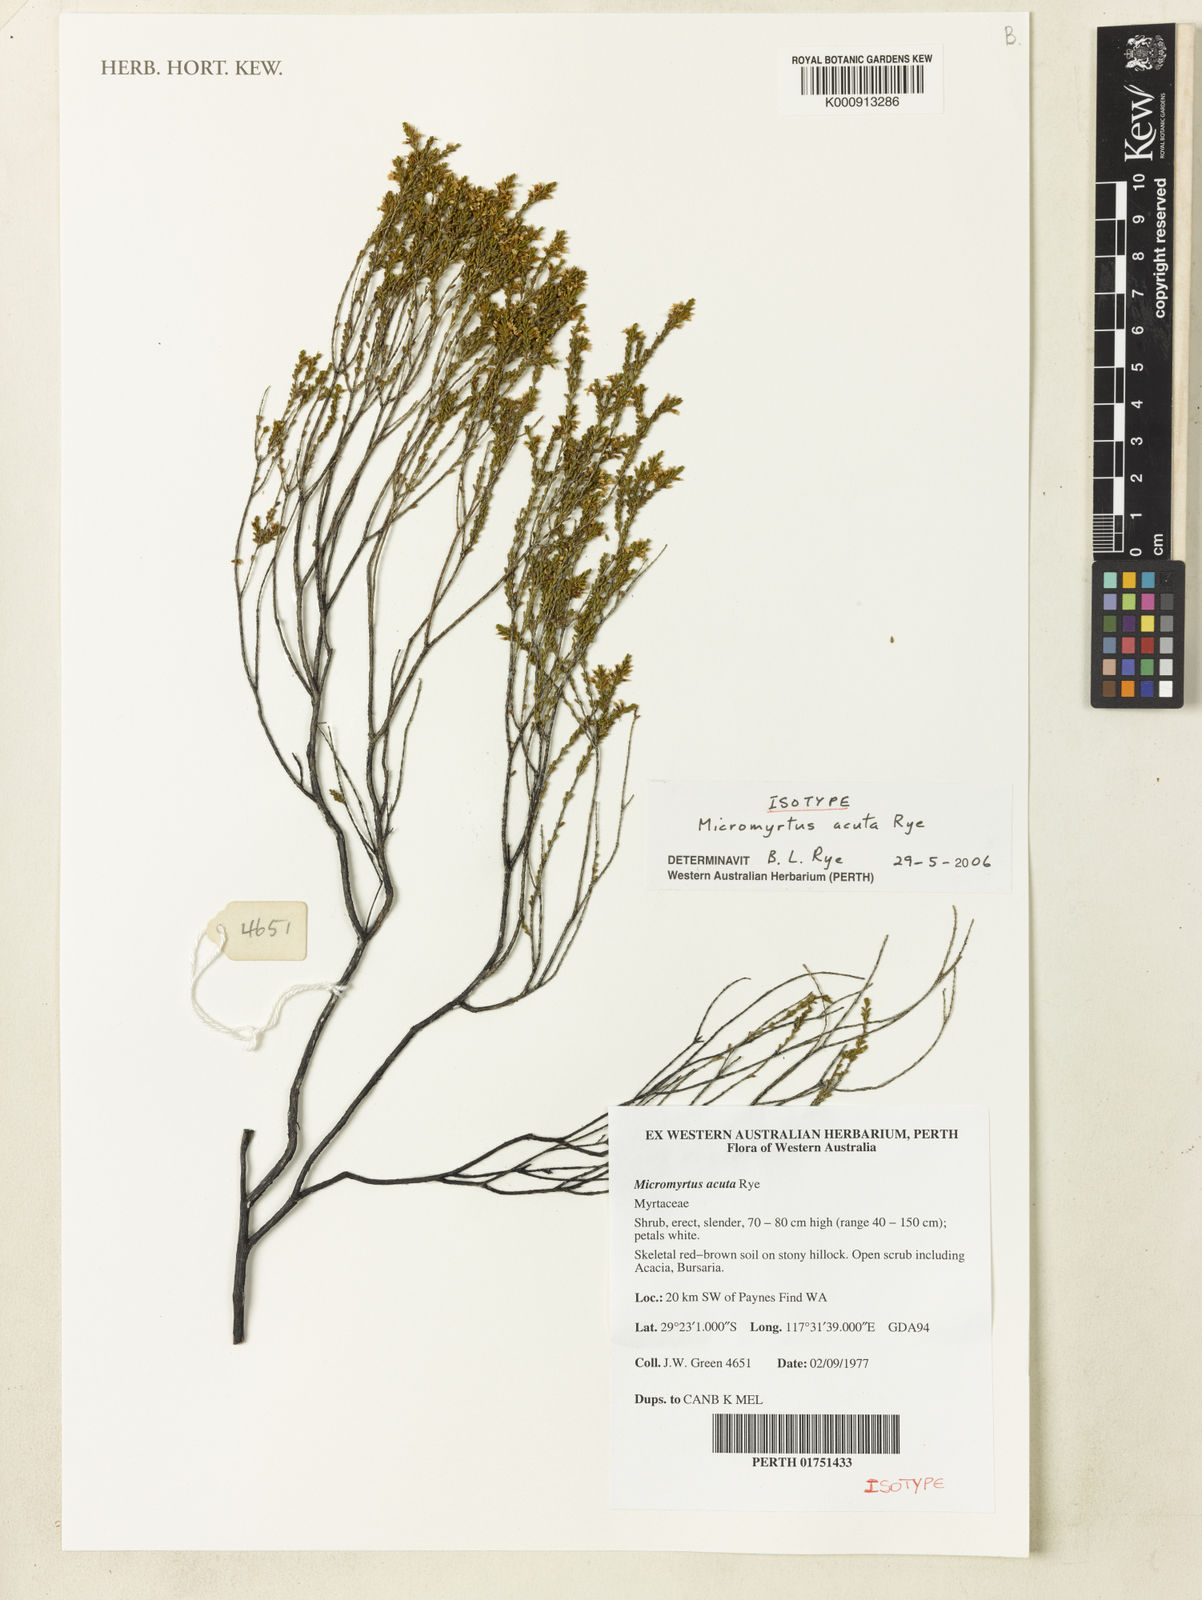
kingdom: Plantae
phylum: Tracheophyta
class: Magnoliopsida
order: Myrtales
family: Myrtaceae
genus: Micromyrtus
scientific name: Micromyrtus acuta
